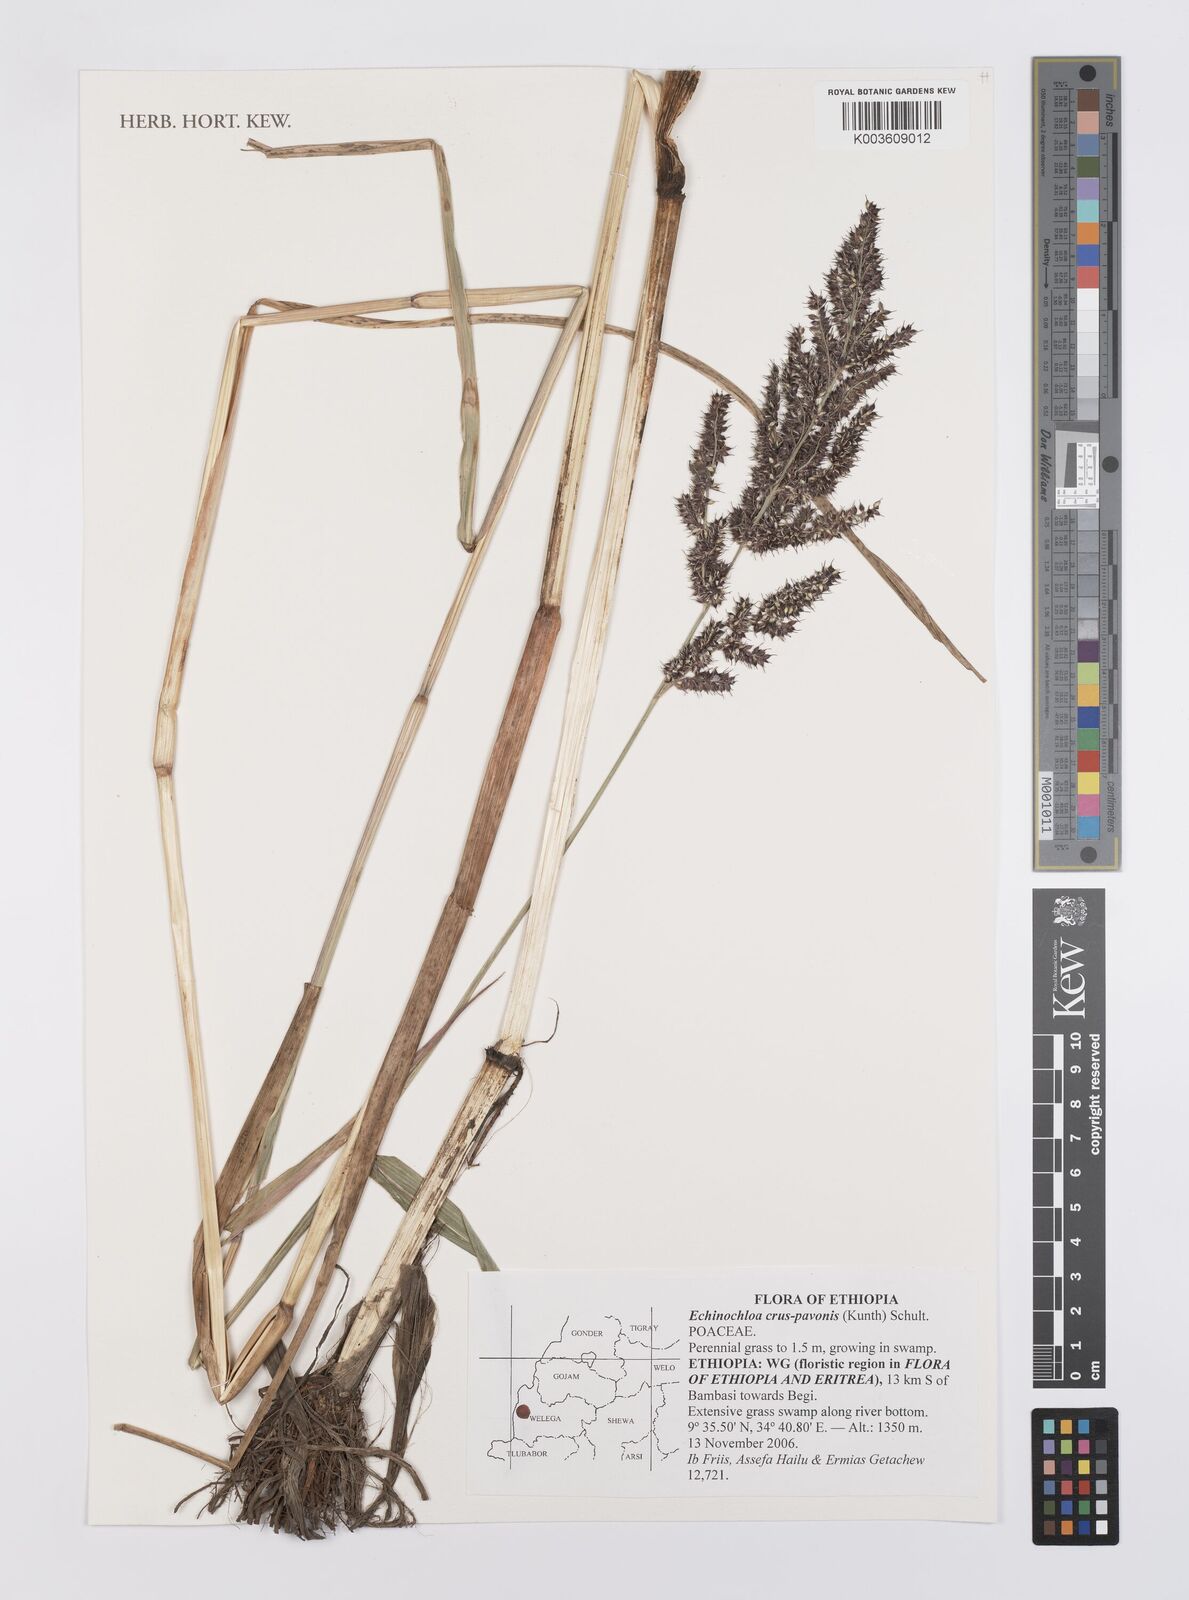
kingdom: Plantae
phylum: Tracheophyta
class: Liliopsida
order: Poales
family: Poaceae
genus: Echinochloa
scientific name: Echinochloa crus-pavonis
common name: Gulf cockspur grass
